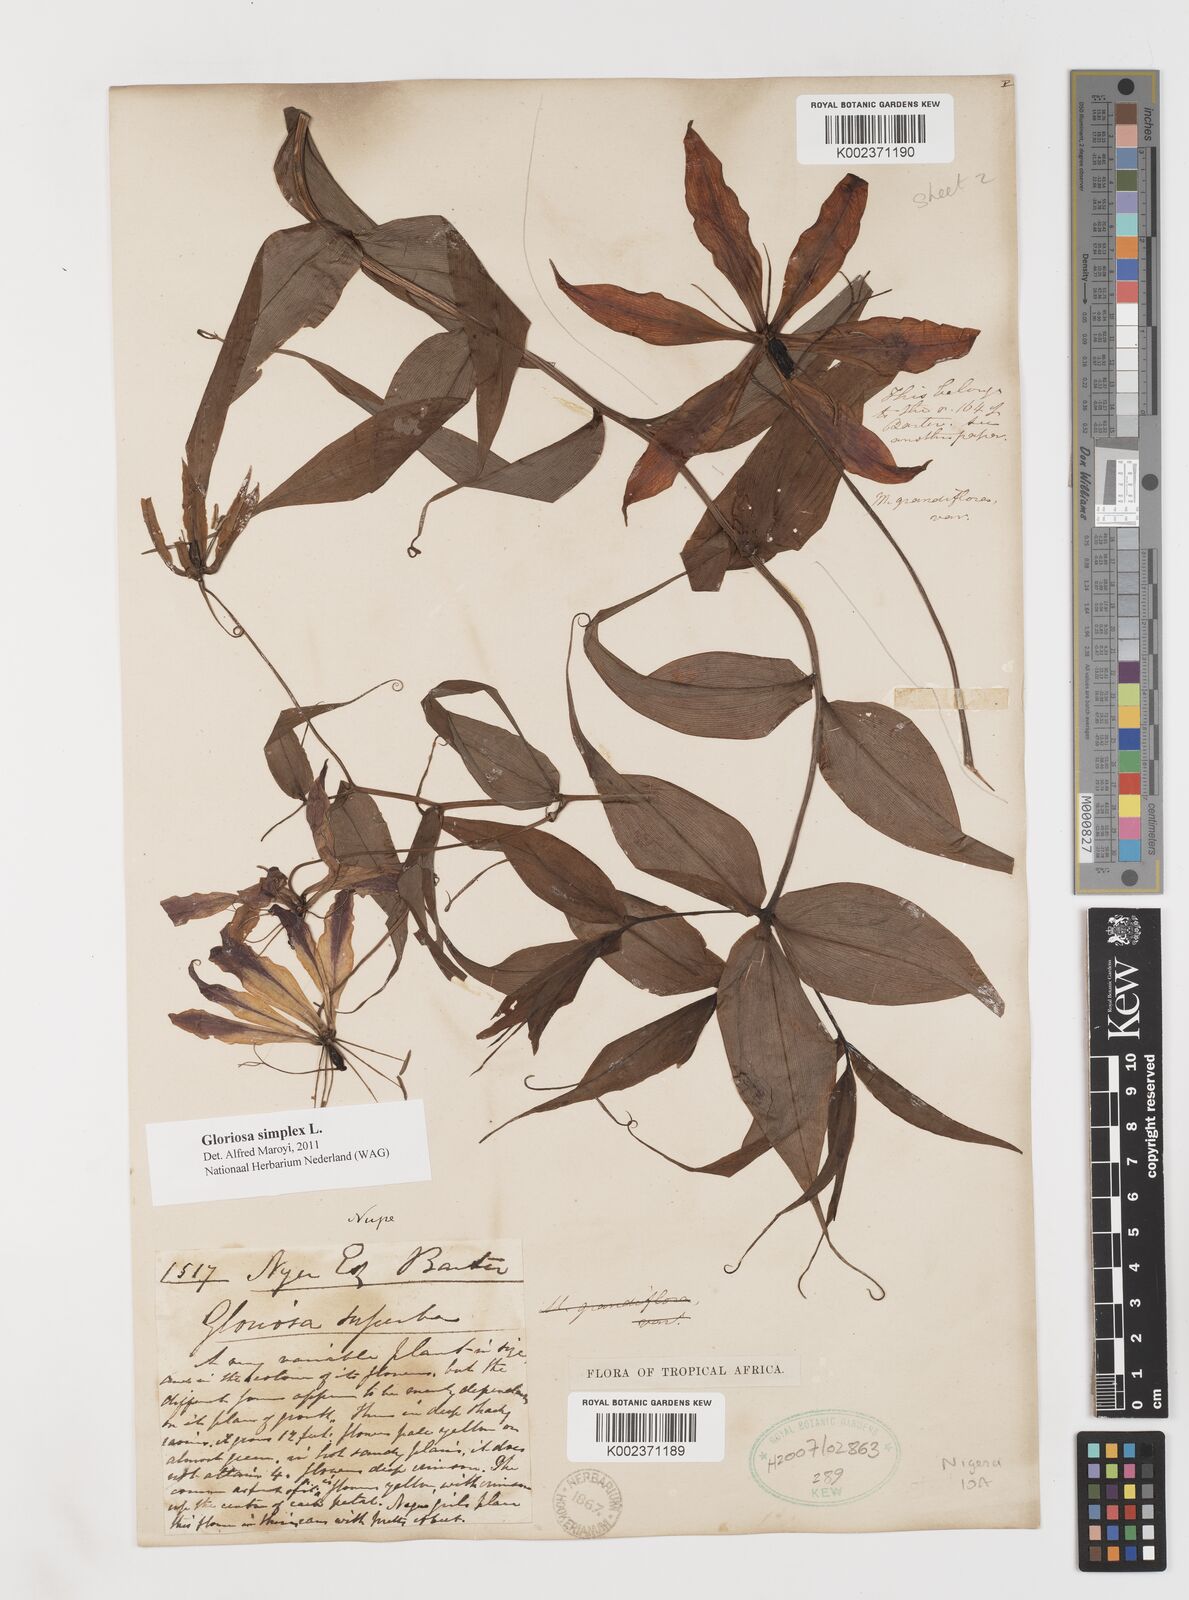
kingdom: Plantae
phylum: Tracheophyta
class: Liliopsida
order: Liliales
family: Colchicaceae
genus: Gloriosa
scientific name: Gloriosa simplex
